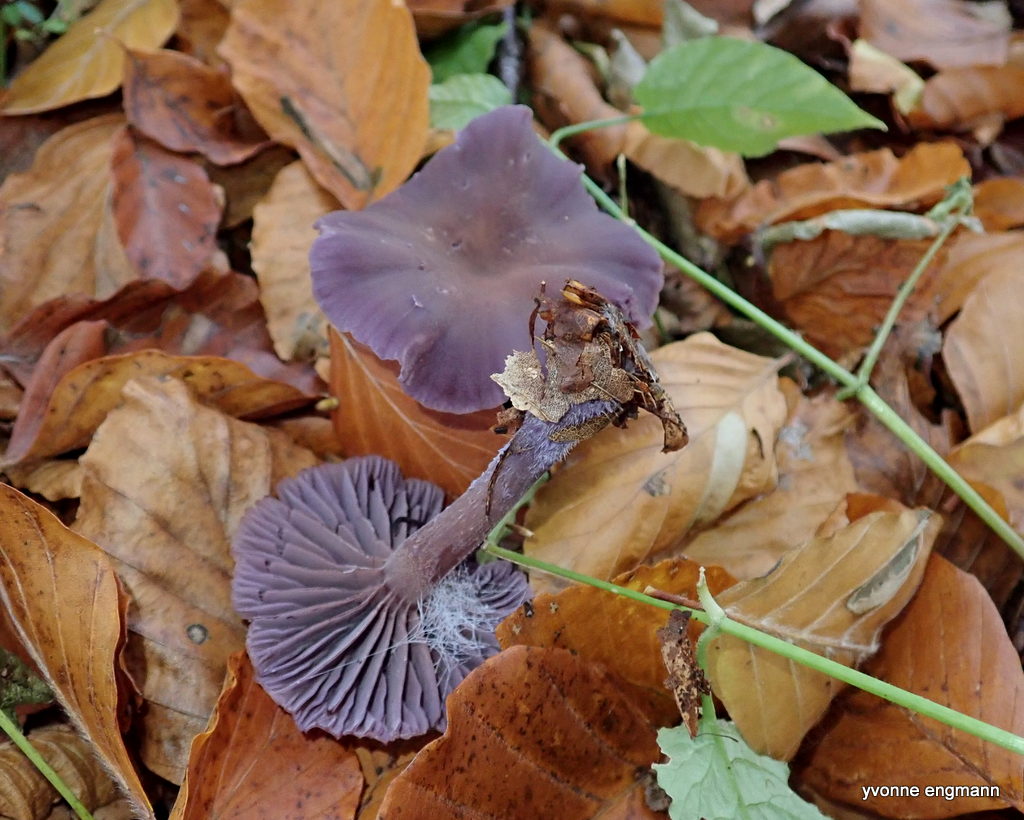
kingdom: Fungi
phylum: Basidiomycota
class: Agaricomycetes
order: Agaricales
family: Hydnangiaceae
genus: Laccaria
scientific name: Laccaria amethystina
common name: violet ametysthat
